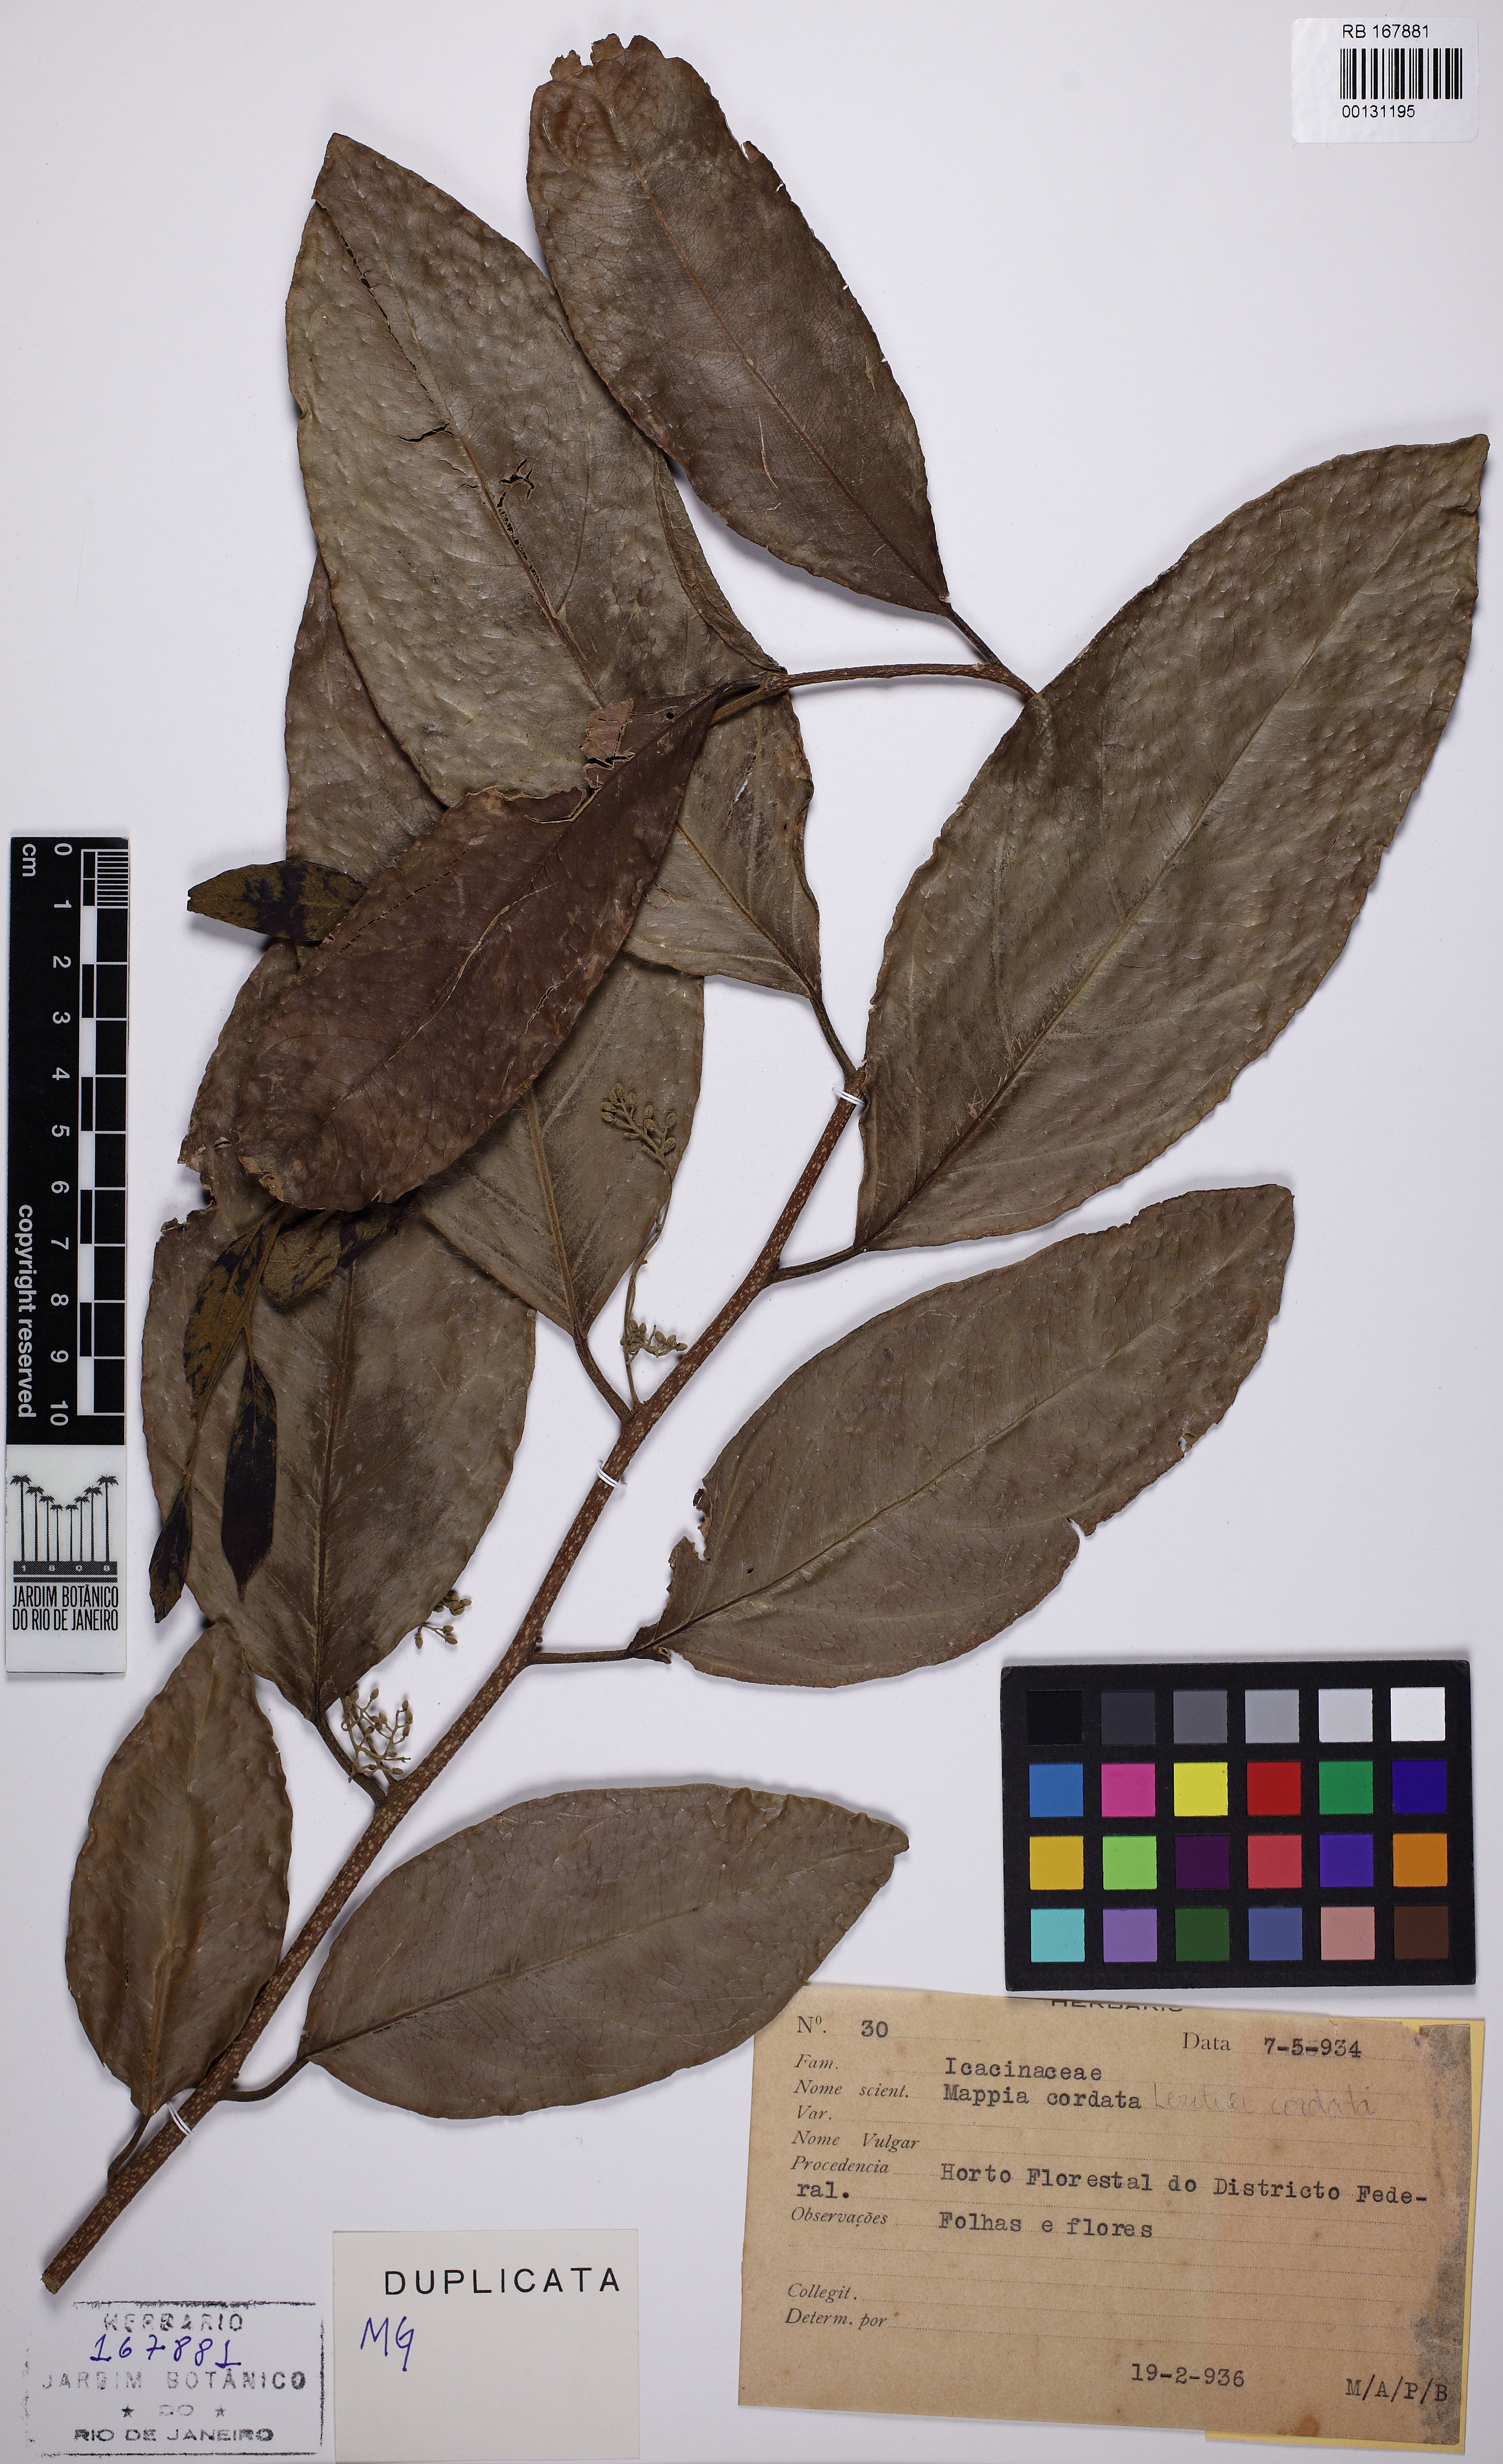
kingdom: Plantae
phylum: Tracheophyta
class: Magnoliopsida
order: Icacinales
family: Icacinaceae
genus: Leretia
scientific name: Leretia cordata
